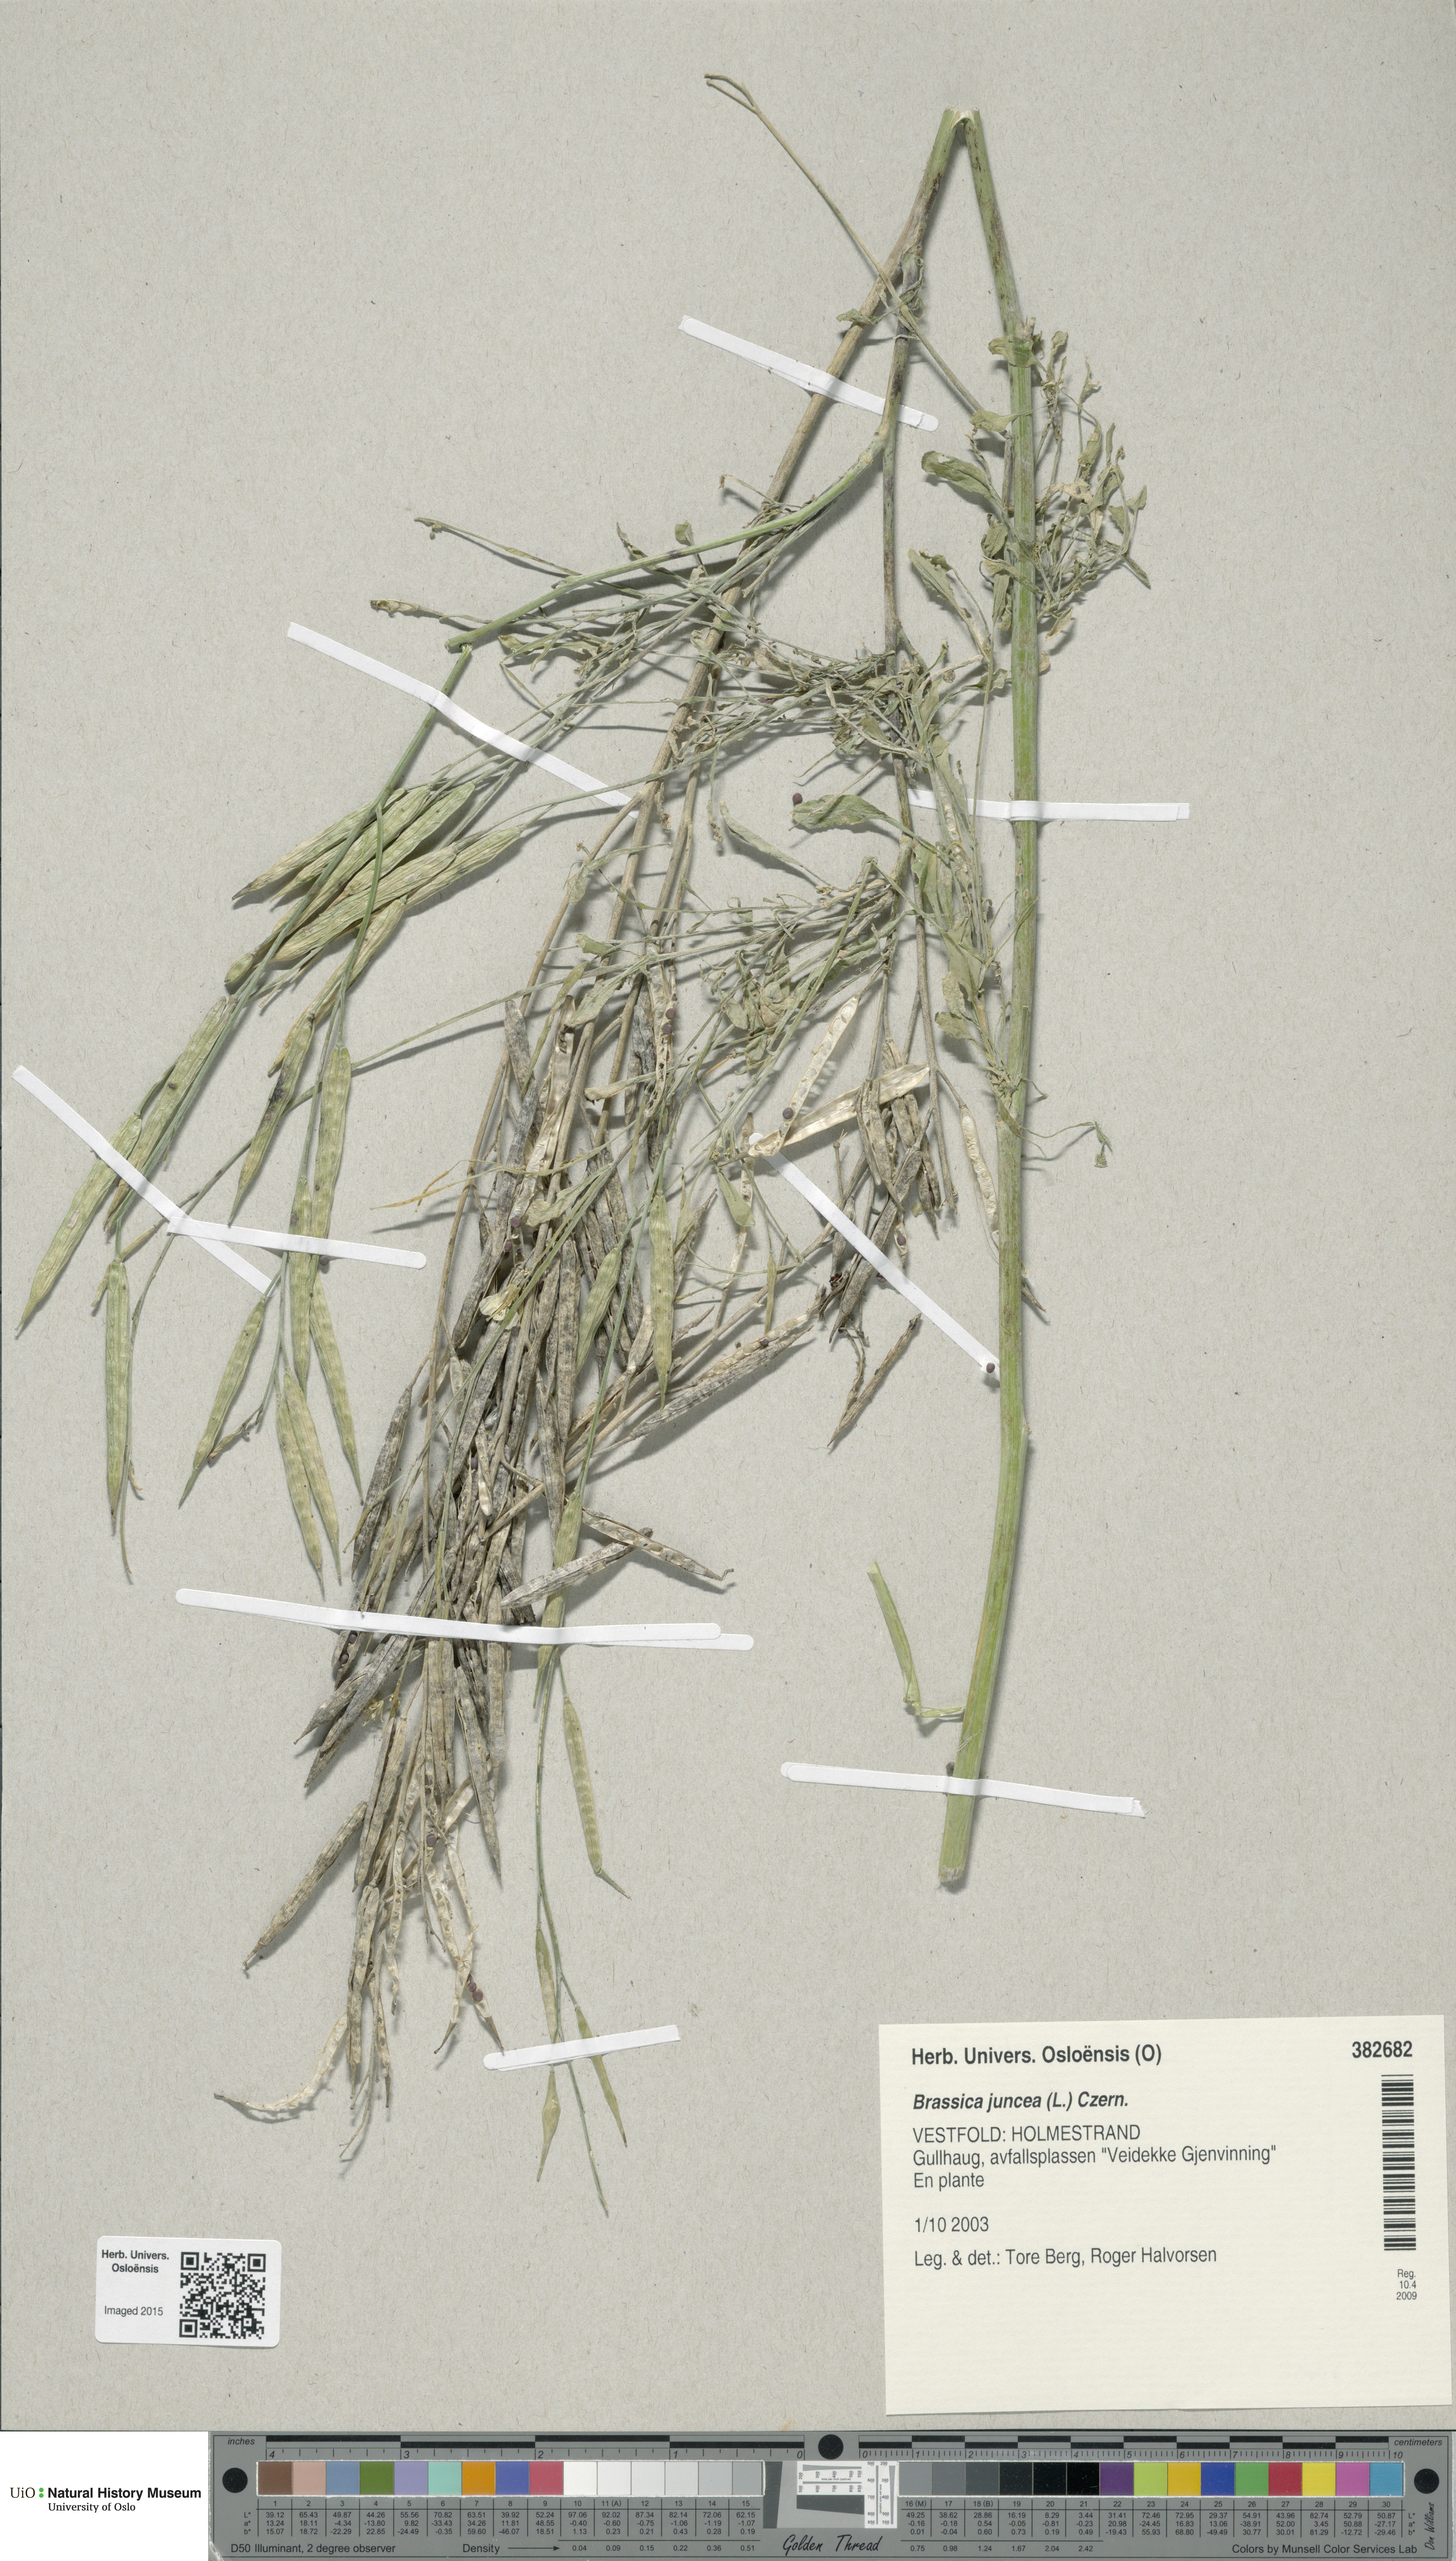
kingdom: Plantae
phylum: Tracheophyta
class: Magnoliopsida
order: Brassicales
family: Brassicaceae
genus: Brassica
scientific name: Brassica juncea
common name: Brown mustard
